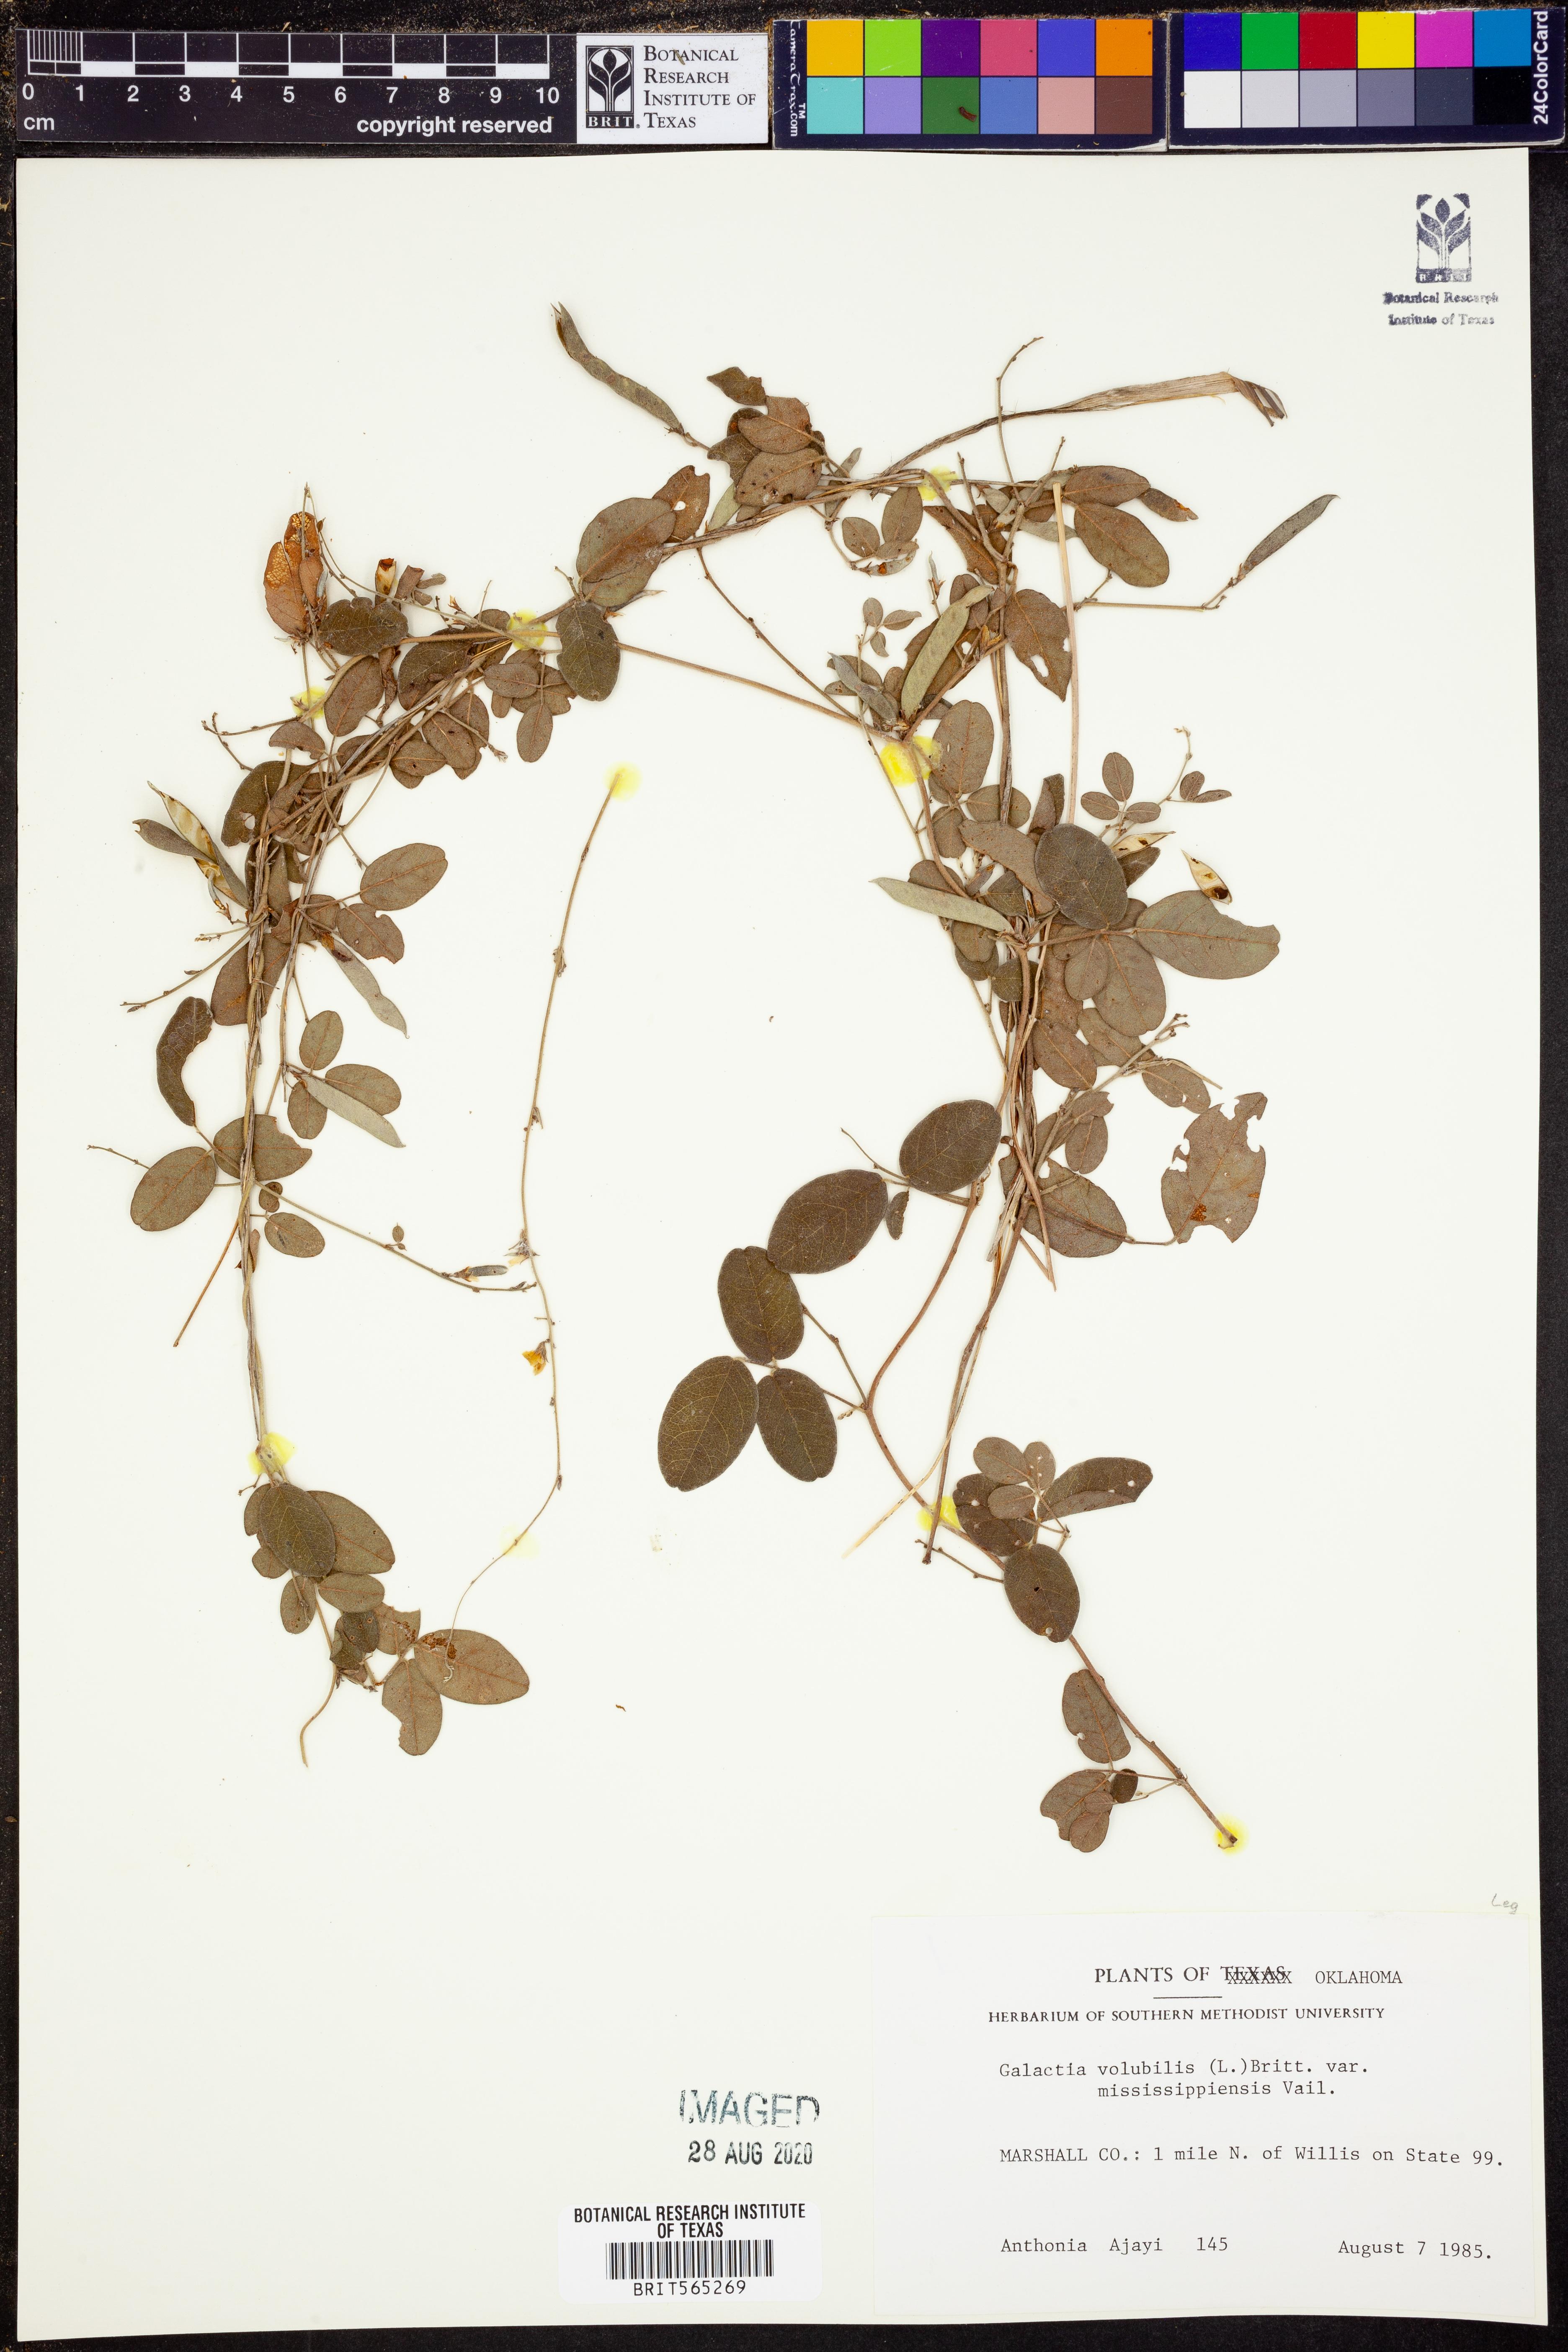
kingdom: Plantae
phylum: Tracheophyta
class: Magnoliopsida
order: Fabales
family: Fabaceae
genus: Galactia
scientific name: Galactia volubilis
